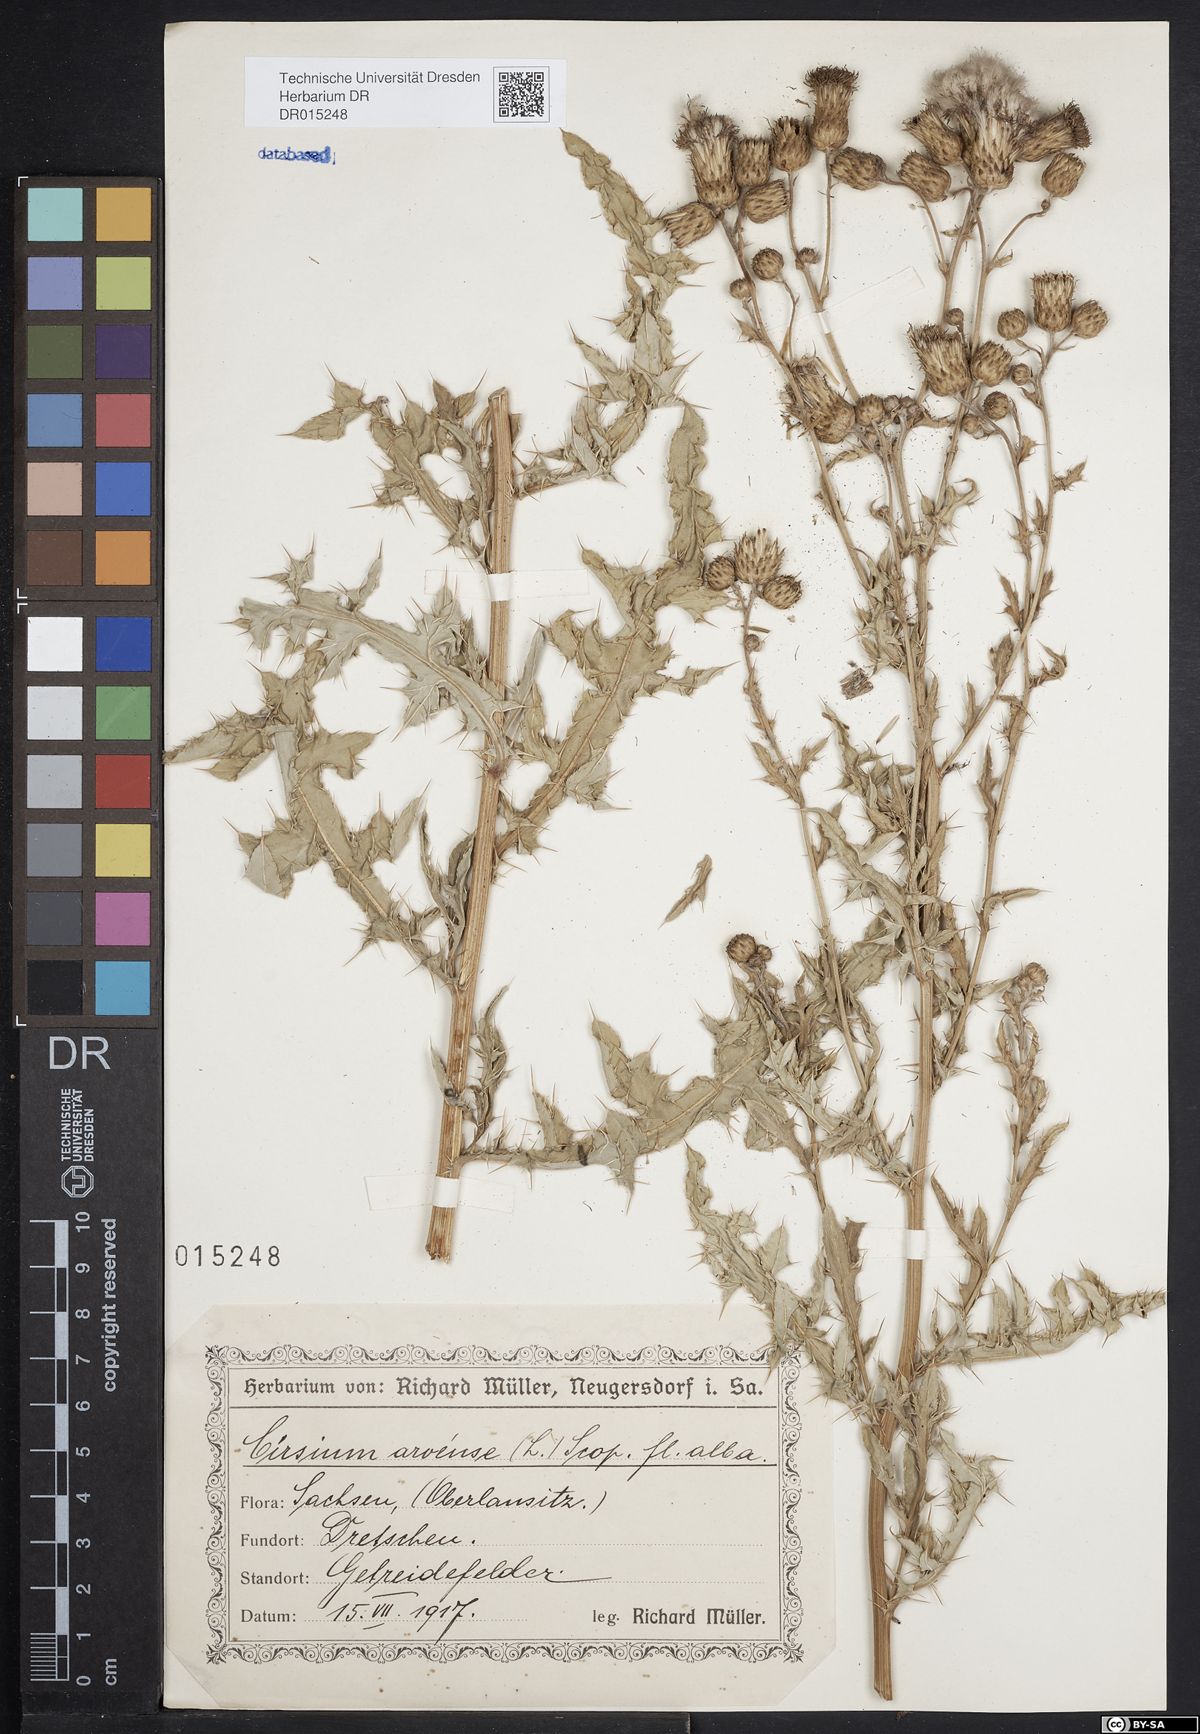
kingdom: Plantae
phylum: Tracheophyta
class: Magnoliopsida
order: Asterales
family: Asteraceae
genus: Cirsium
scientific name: Cirsium arvense
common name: Creeping thistle
